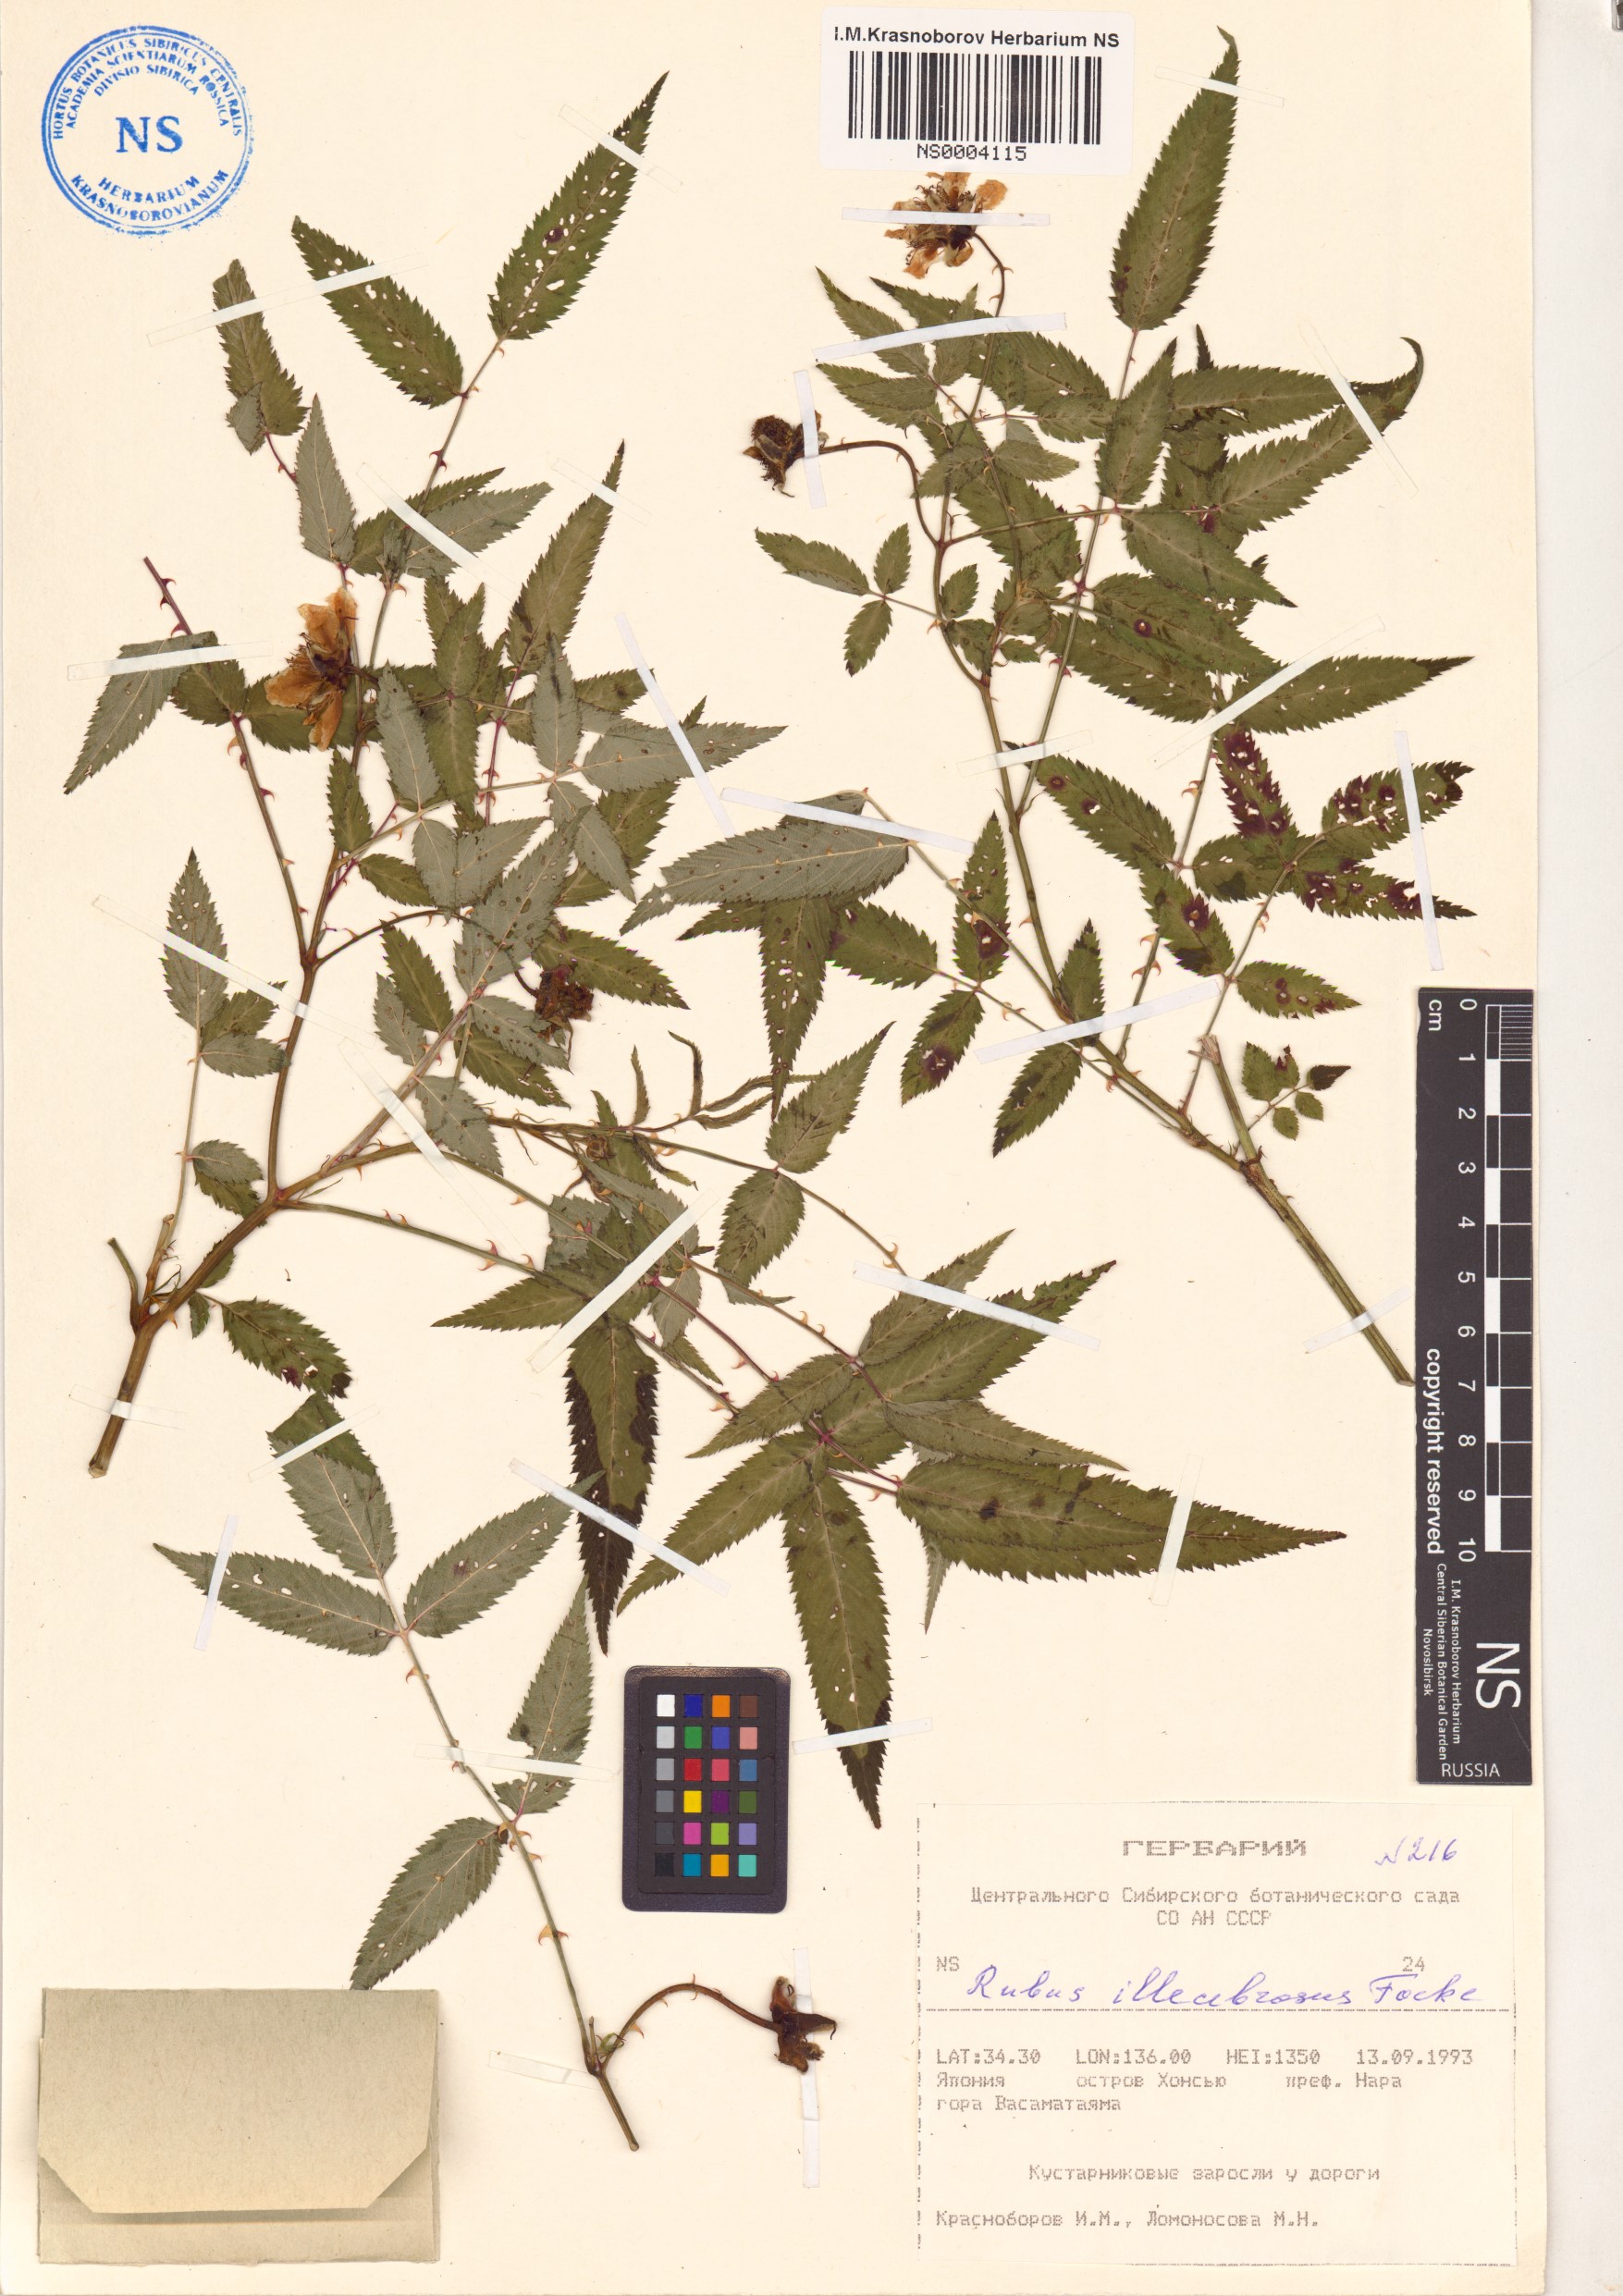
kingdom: Plantae
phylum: Tracheophyta
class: Magnoliopsida
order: Rosales
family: Rosaceae
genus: Rubus
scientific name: Rubus illecebrosus
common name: Strawberry raspberry
